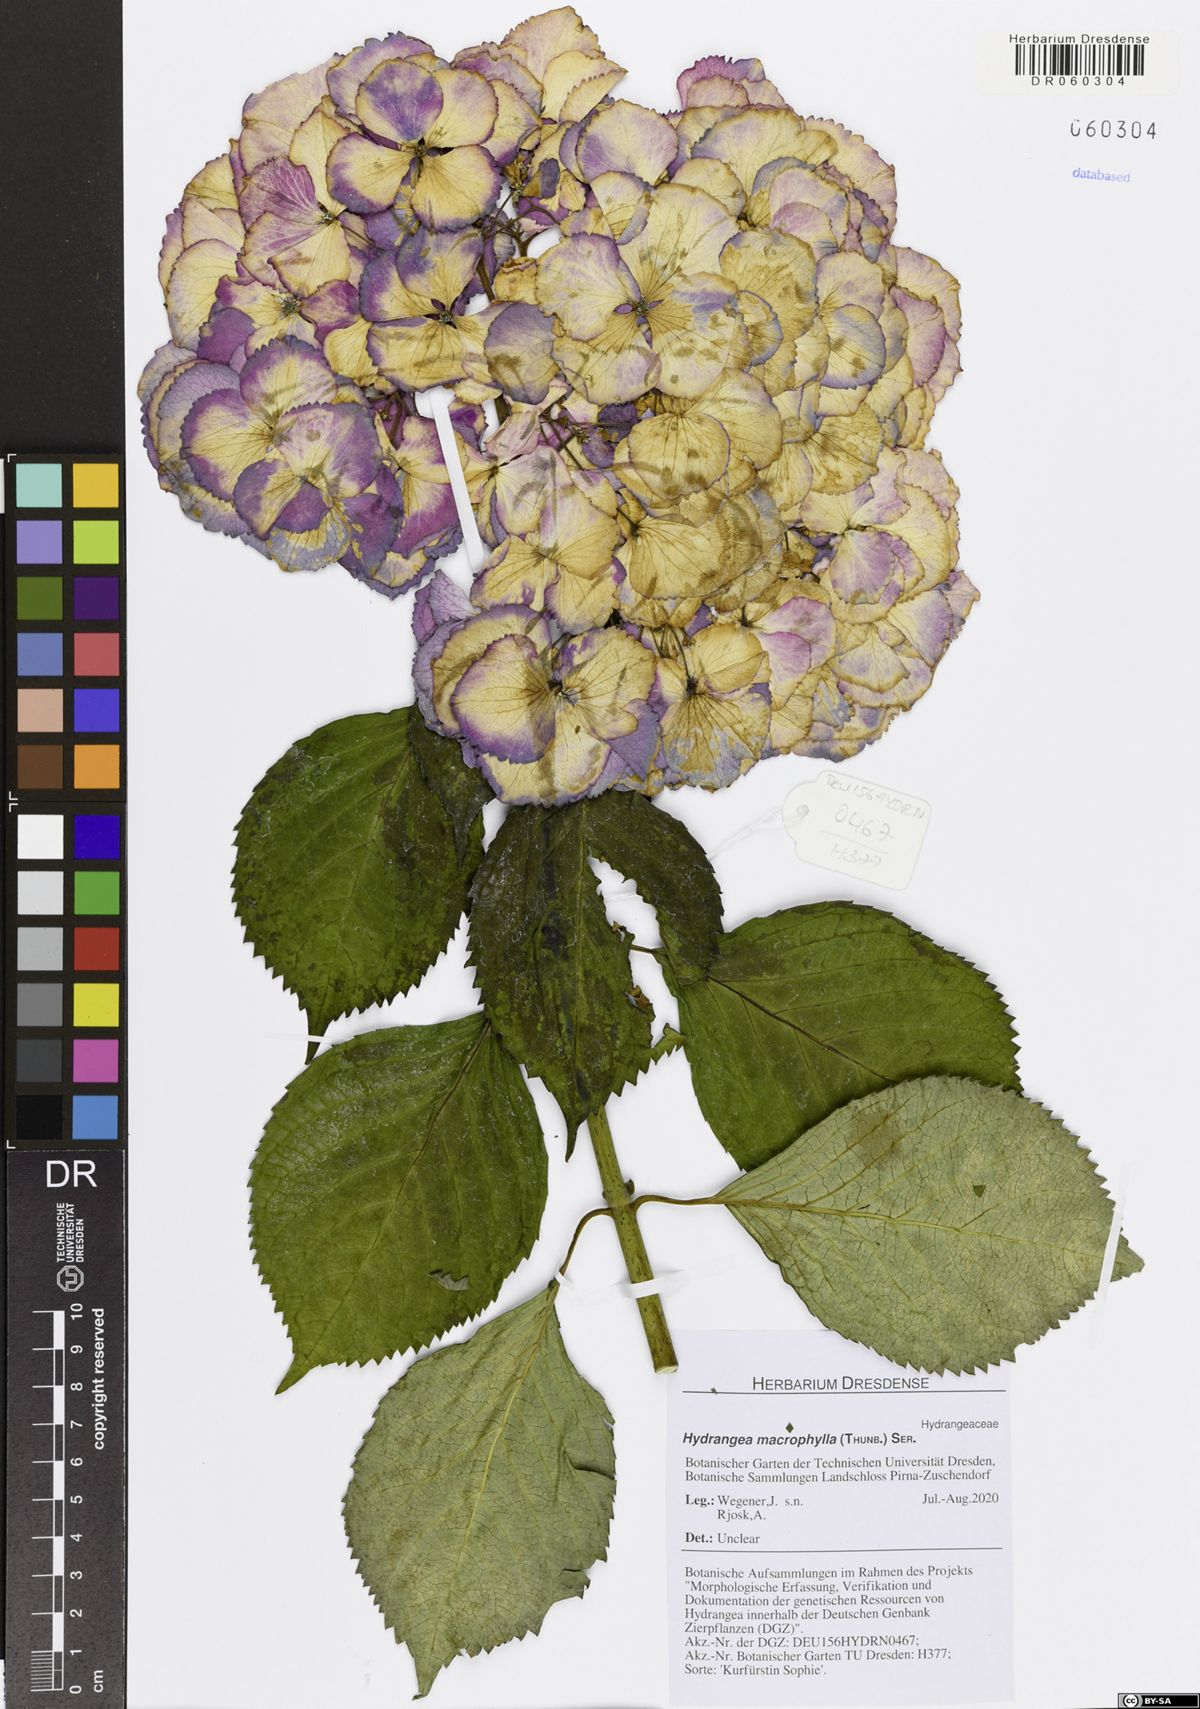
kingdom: Plantae
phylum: Tracheophyta
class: Magnoliopsida
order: Cornales
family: Hydrangeaceae
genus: Hydrangea
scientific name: Hydrangea macrophylla
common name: Hydrangea
